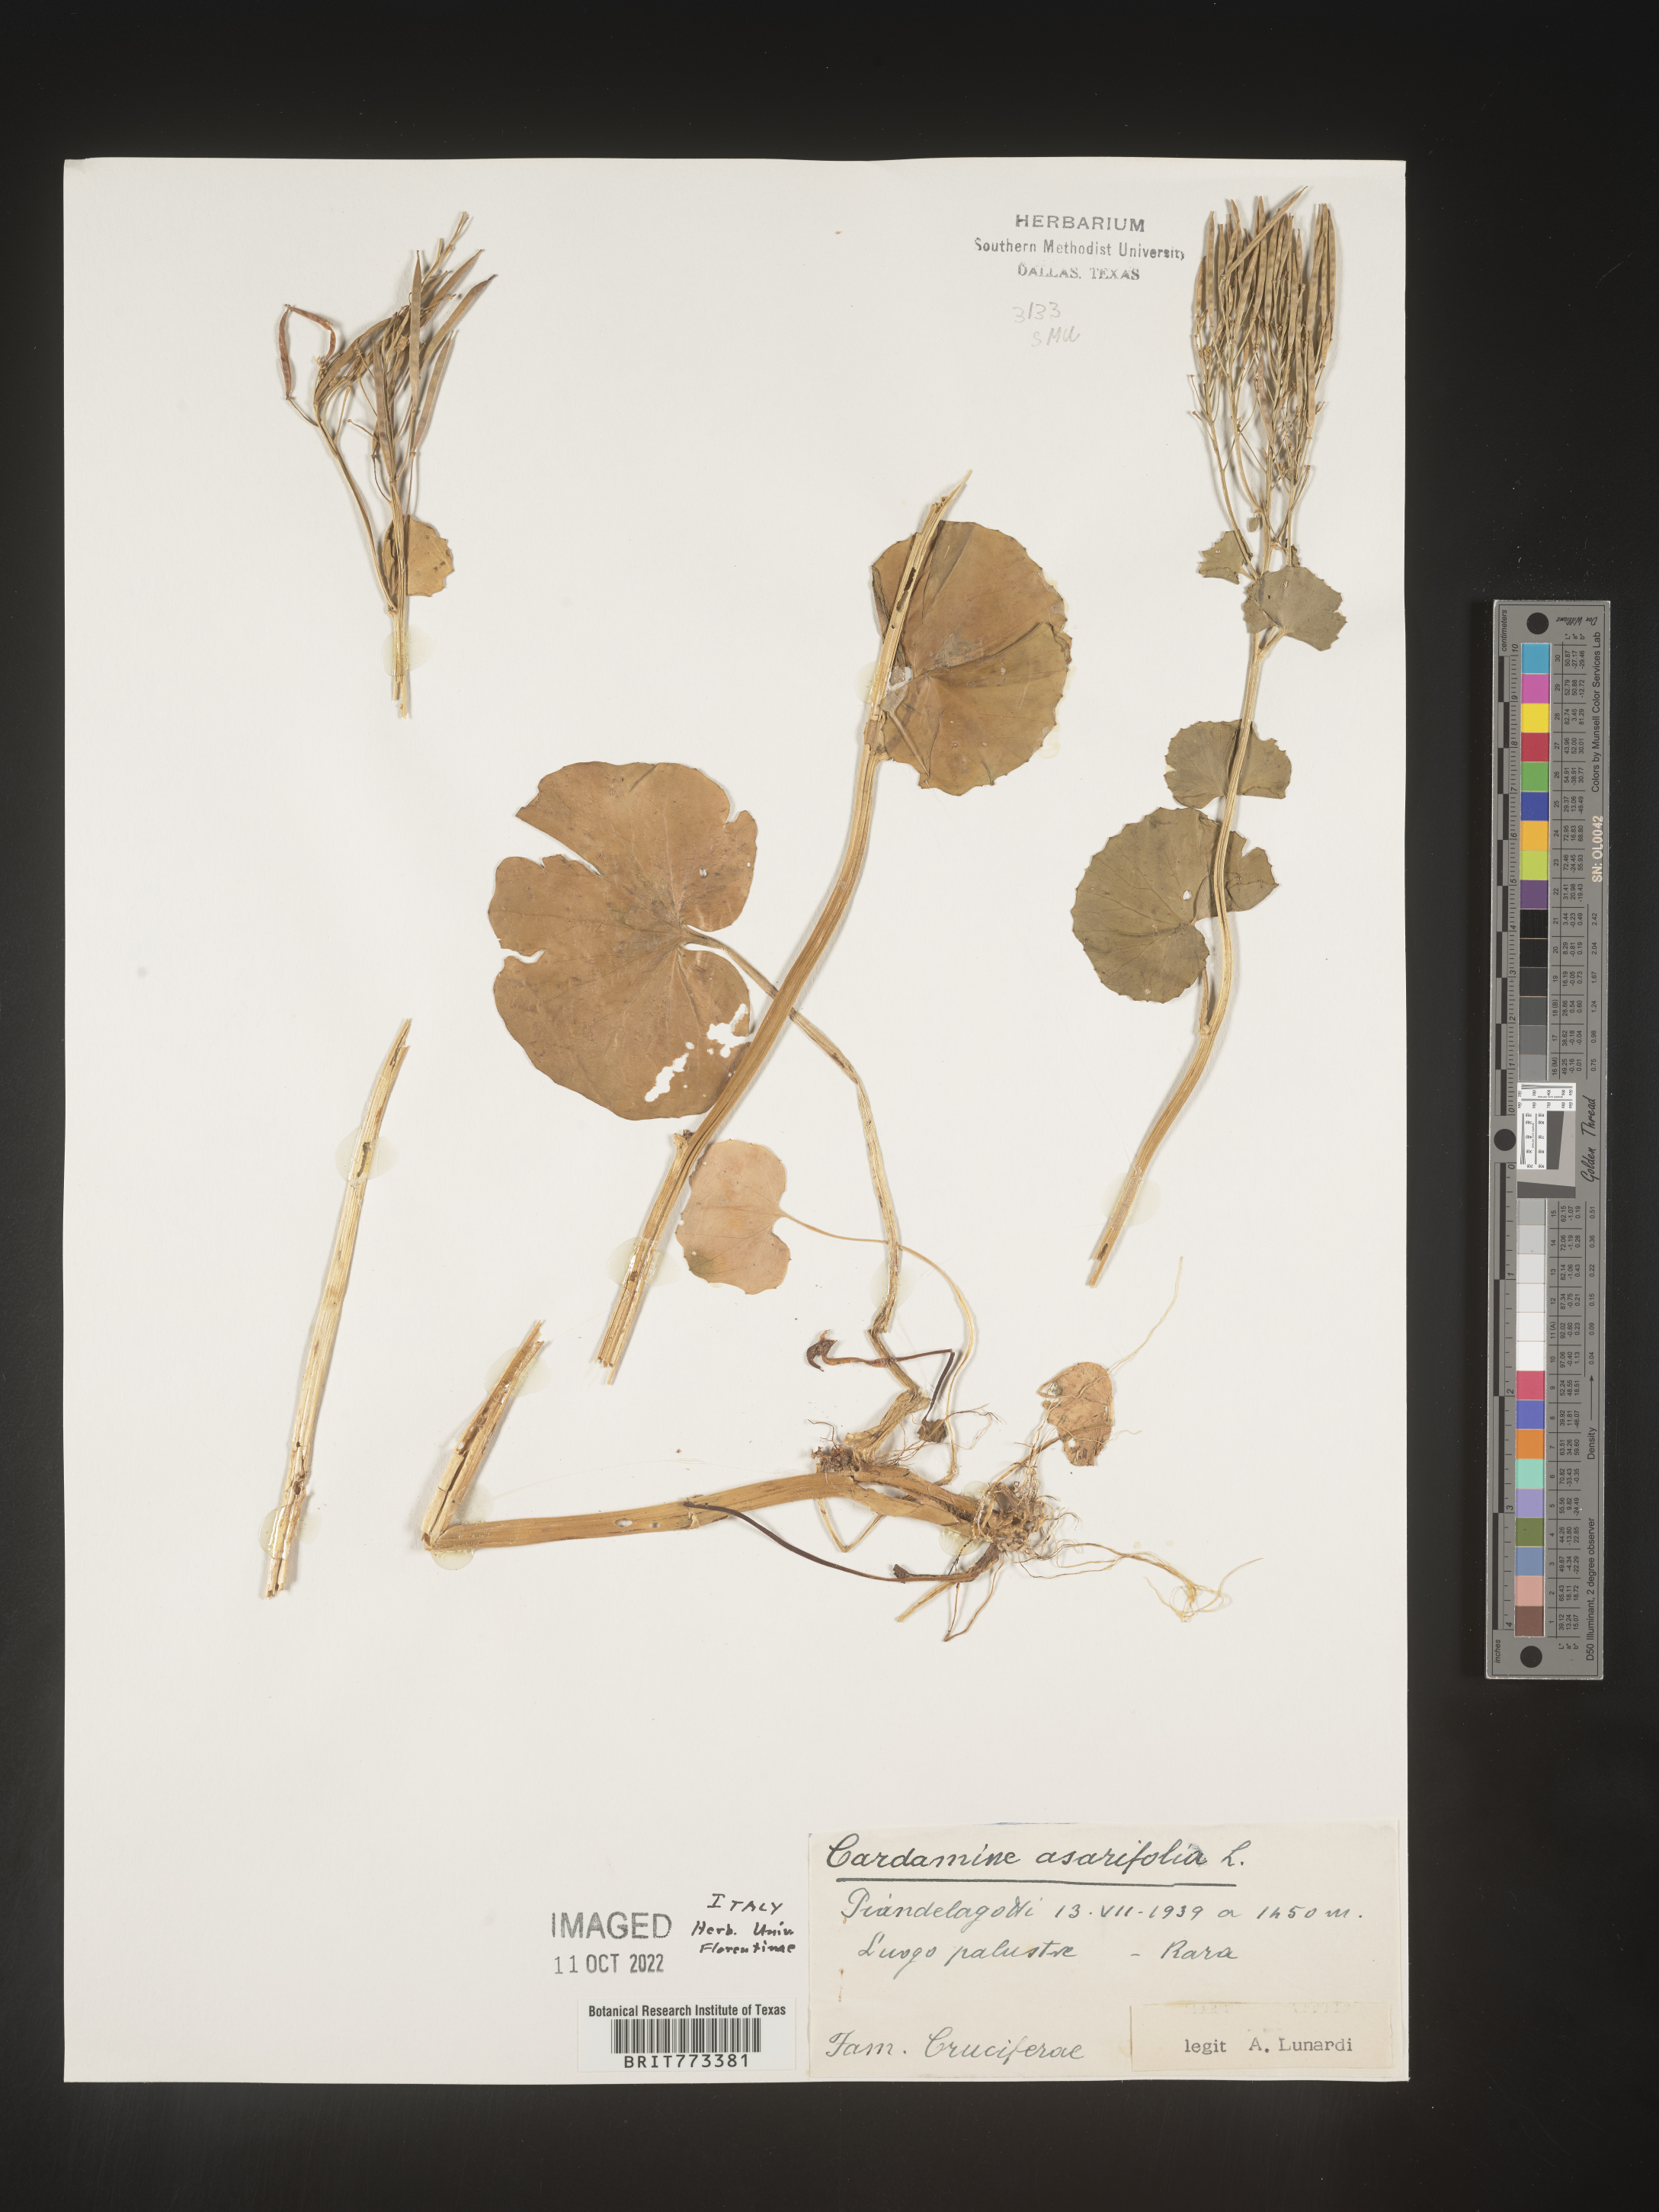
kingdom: Plantae
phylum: Tracheophyta
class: Magnoliopsida
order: Brassicales
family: Brassicaceae
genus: Cardamine
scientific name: Cardamine
